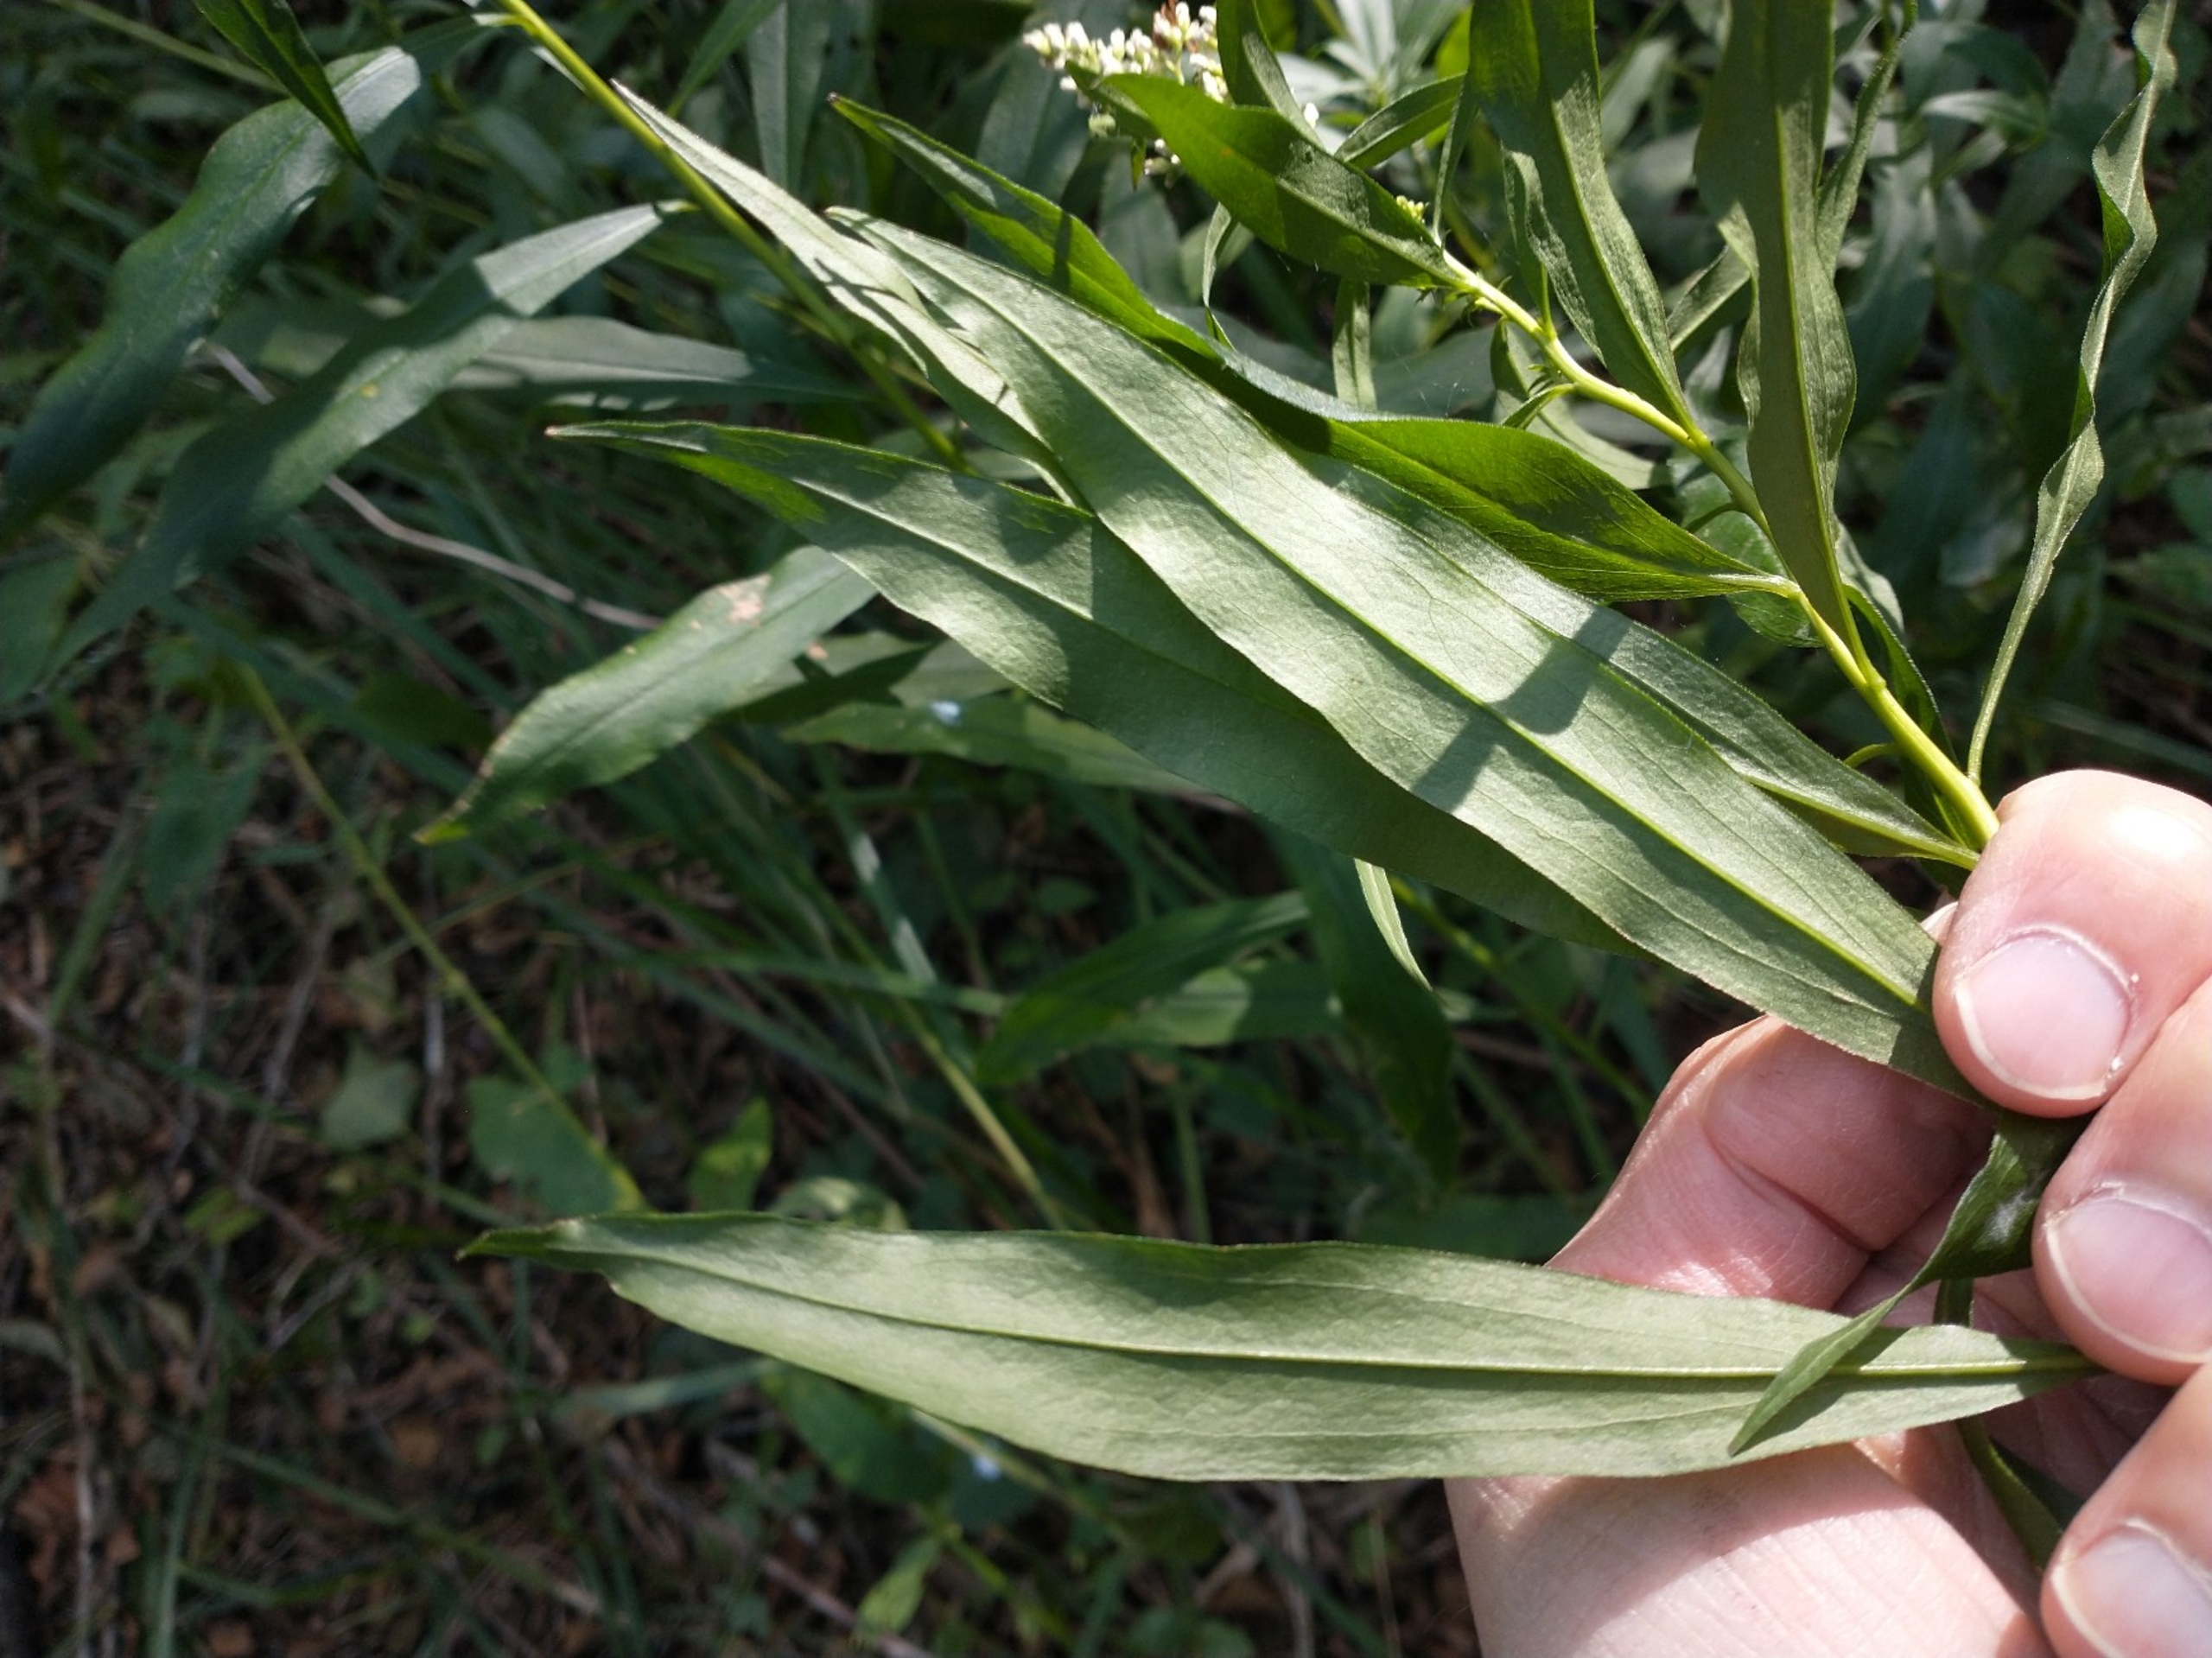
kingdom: Plantae
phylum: Tracheophyta
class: Magnoliopsida
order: Asterales
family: Asteraceae
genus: Solidago
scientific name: Solidago gigantea
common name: Sildig gyldenris
